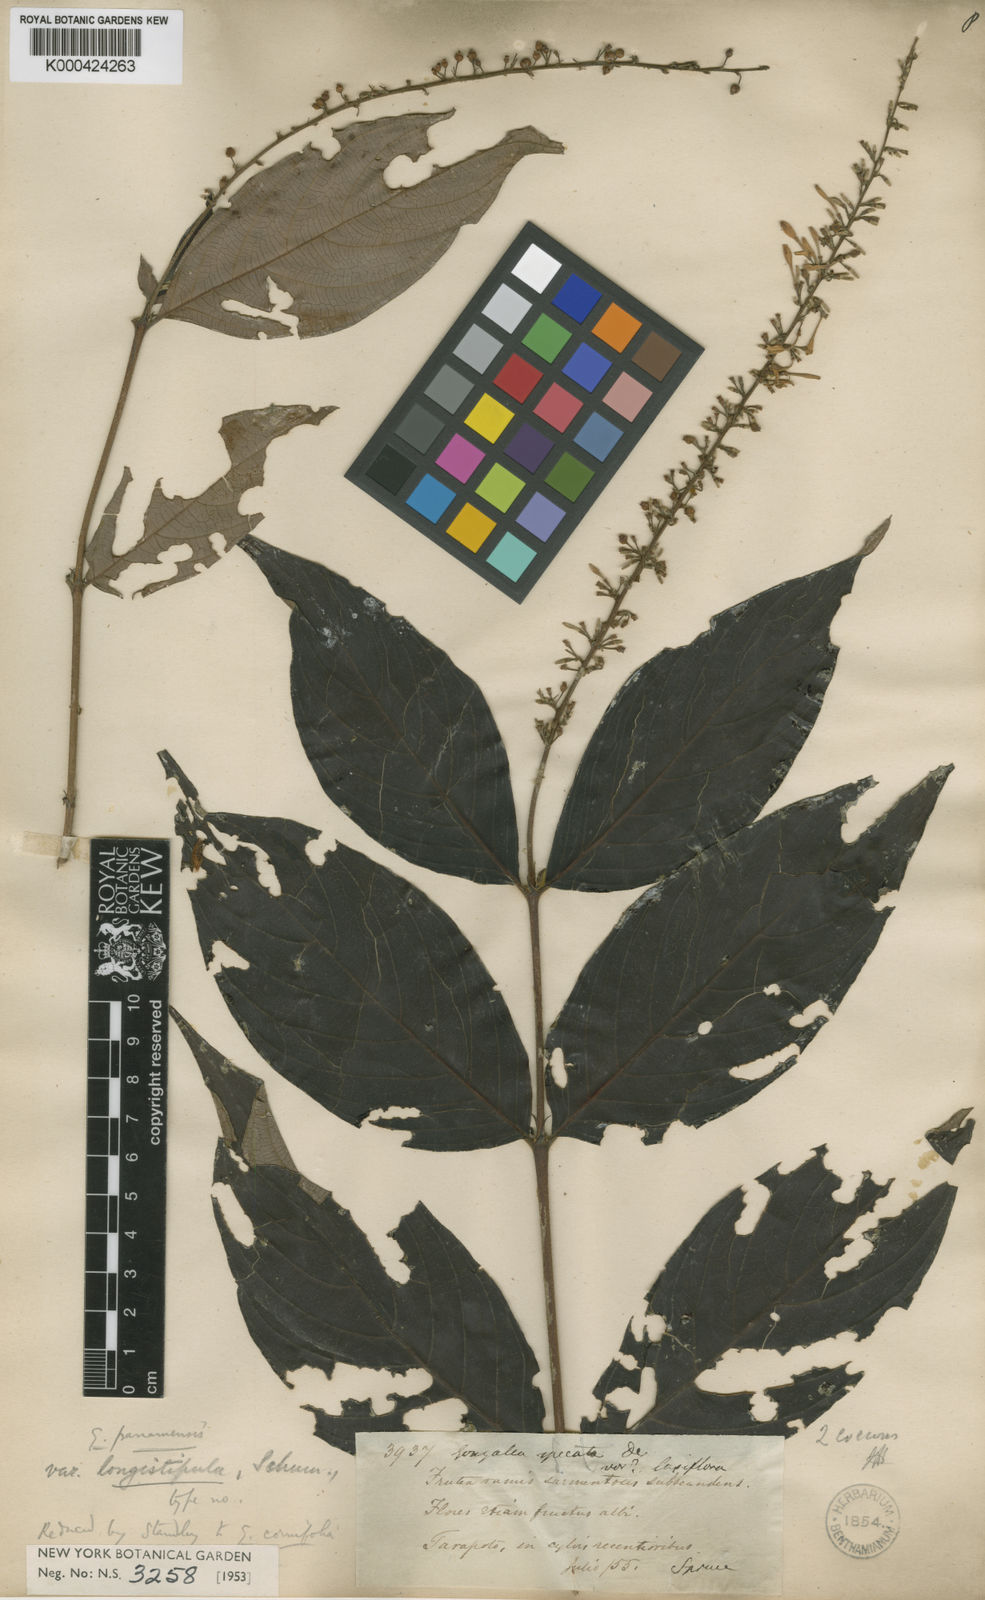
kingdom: Plantae
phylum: Tracheophyta
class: Magnoliopsida
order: Gentianales
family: Rubiaceae
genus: Gonzalagunia
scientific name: Gonzalagunia cornifolia
